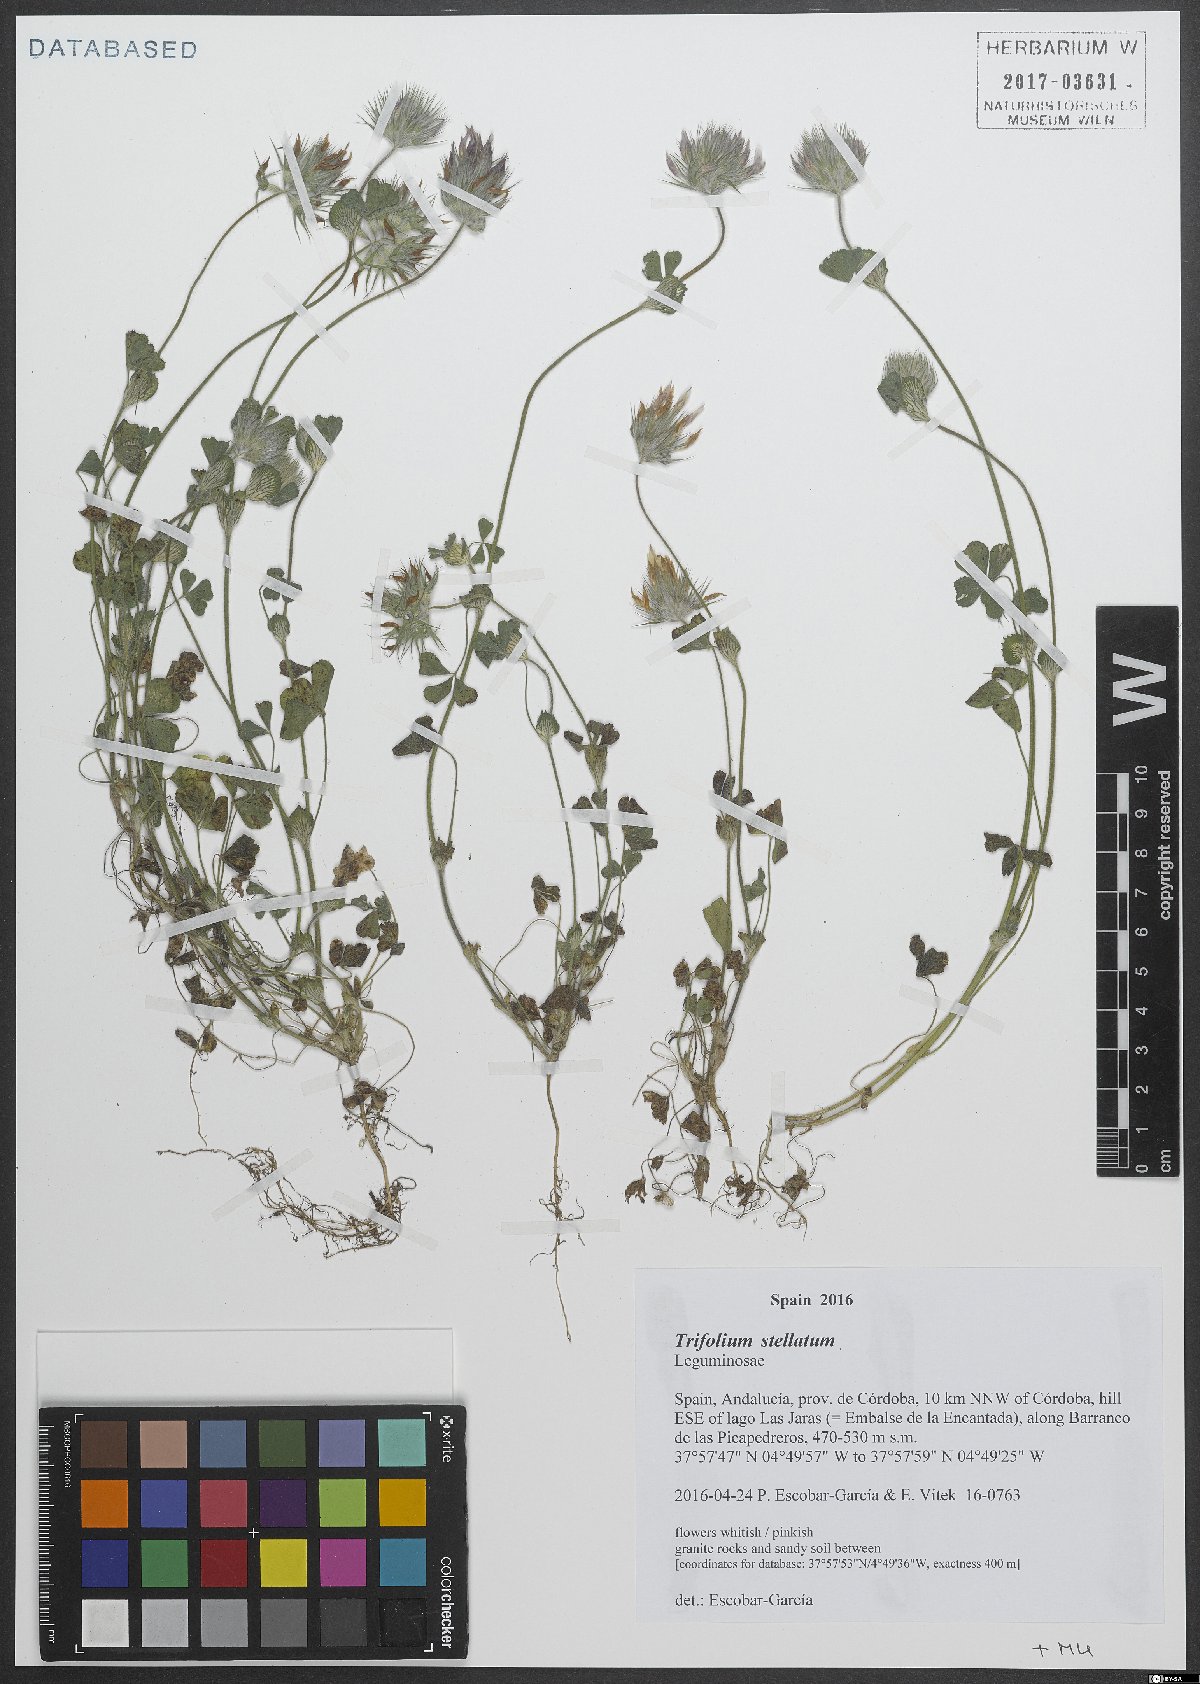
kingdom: Plantae
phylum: Tracheophyta
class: Magnoliopsida
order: Fabales
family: Fabaceae
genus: Trifolium
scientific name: Trifolium stellatum
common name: Starry clover
